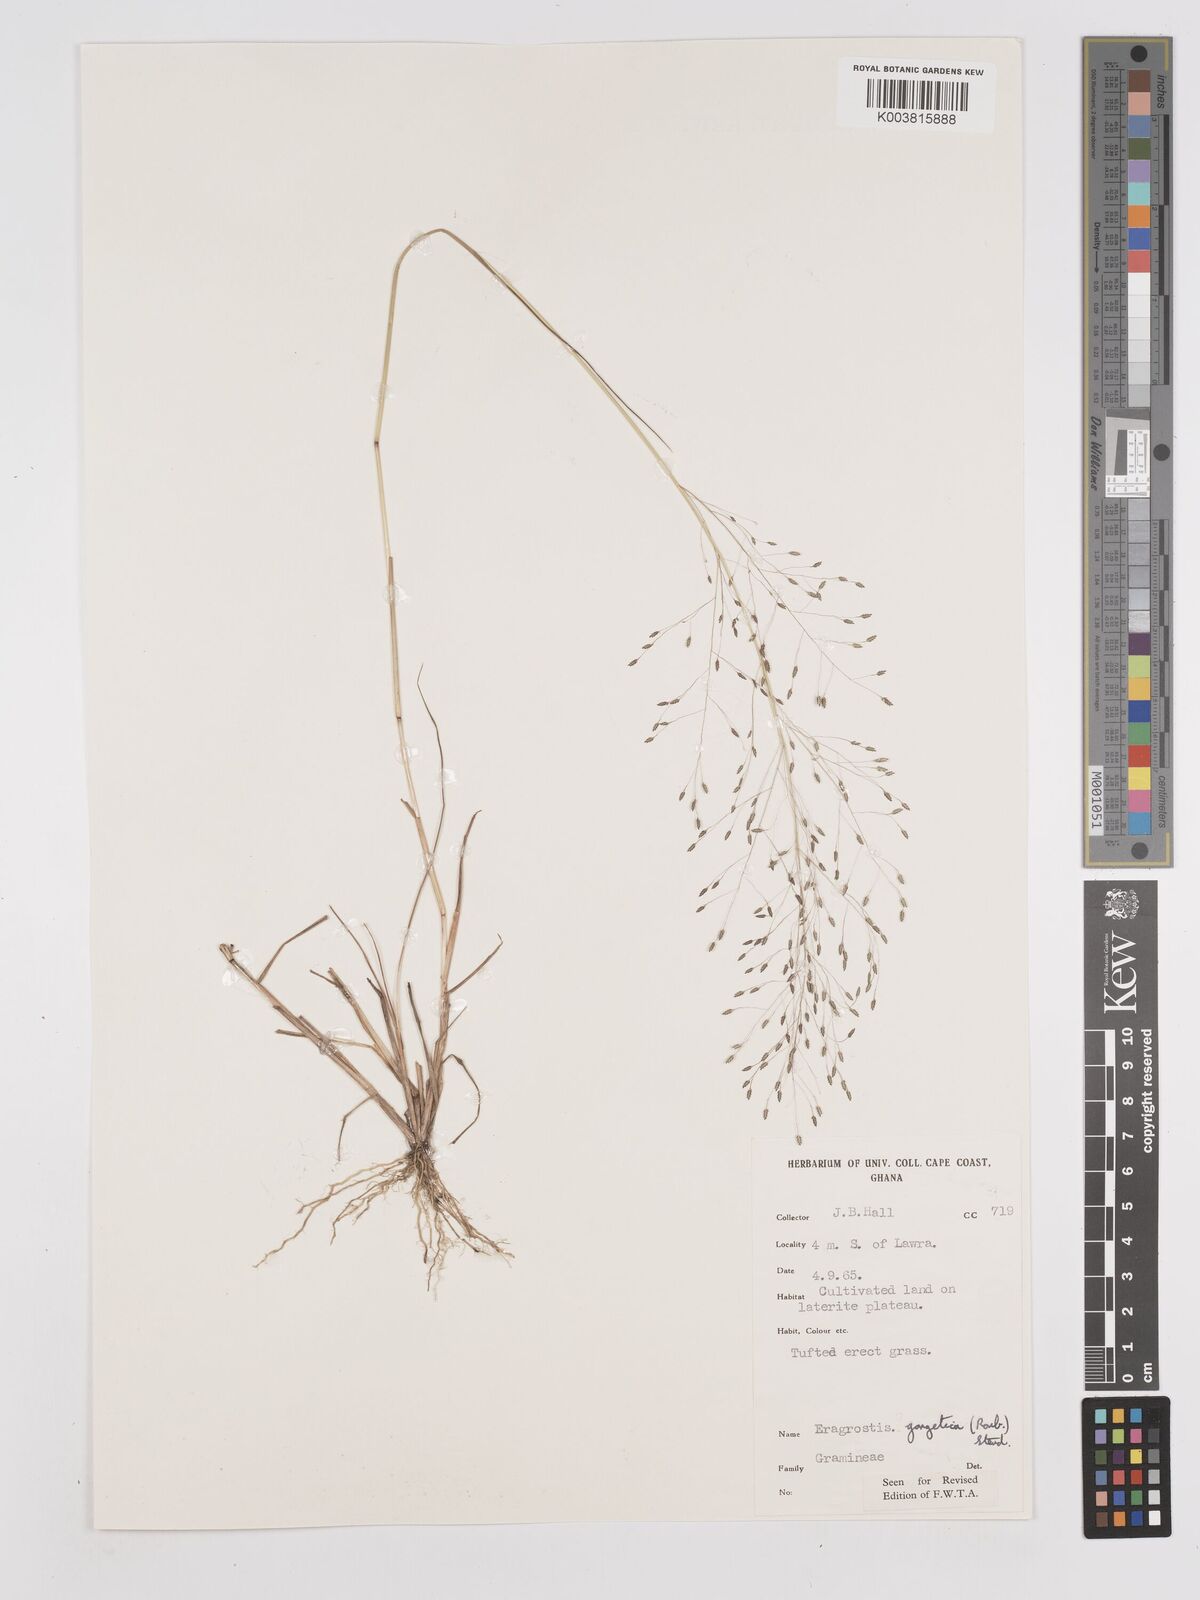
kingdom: Plantae
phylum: Tracheophyta
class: Liliopsida
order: Poales
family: Poaceae
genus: Eragrostis
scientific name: Eragrostis gangetica
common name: Slimflower lovegrass
